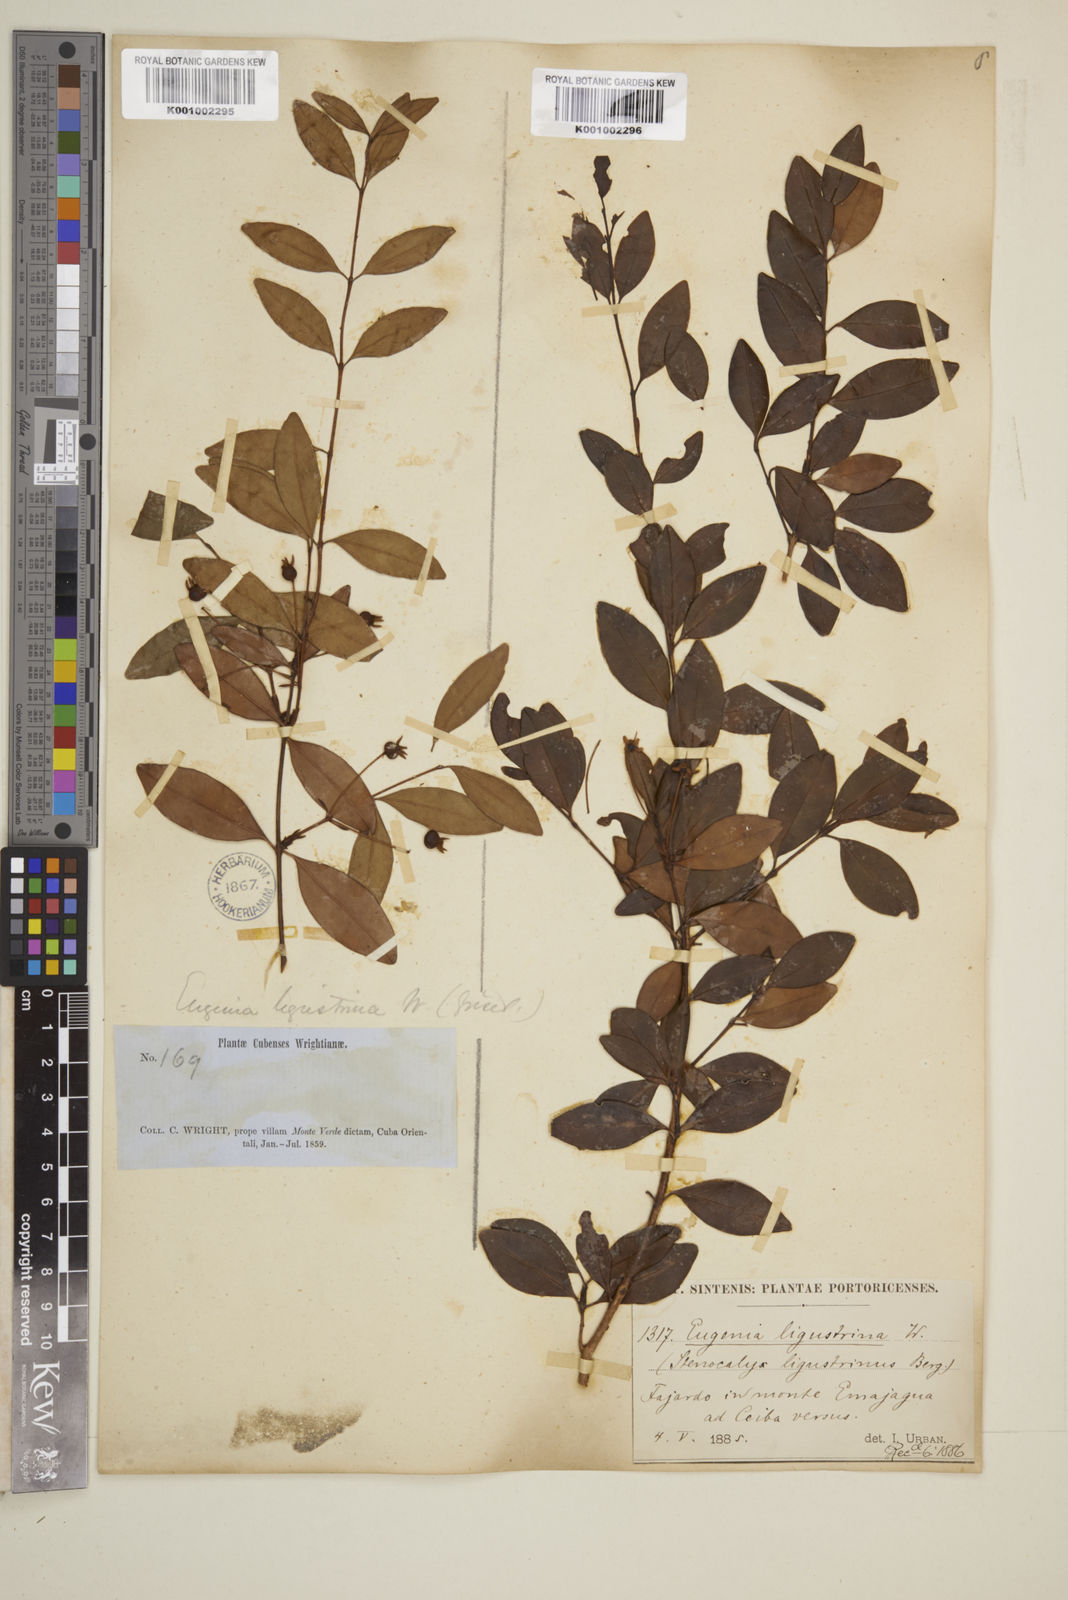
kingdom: Plantae
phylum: Tracheophyta
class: Magnoliopsida
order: Myrtales
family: Myrtaceae
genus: Eugenia
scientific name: Eugenia ligustrina
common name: Privet stopper
